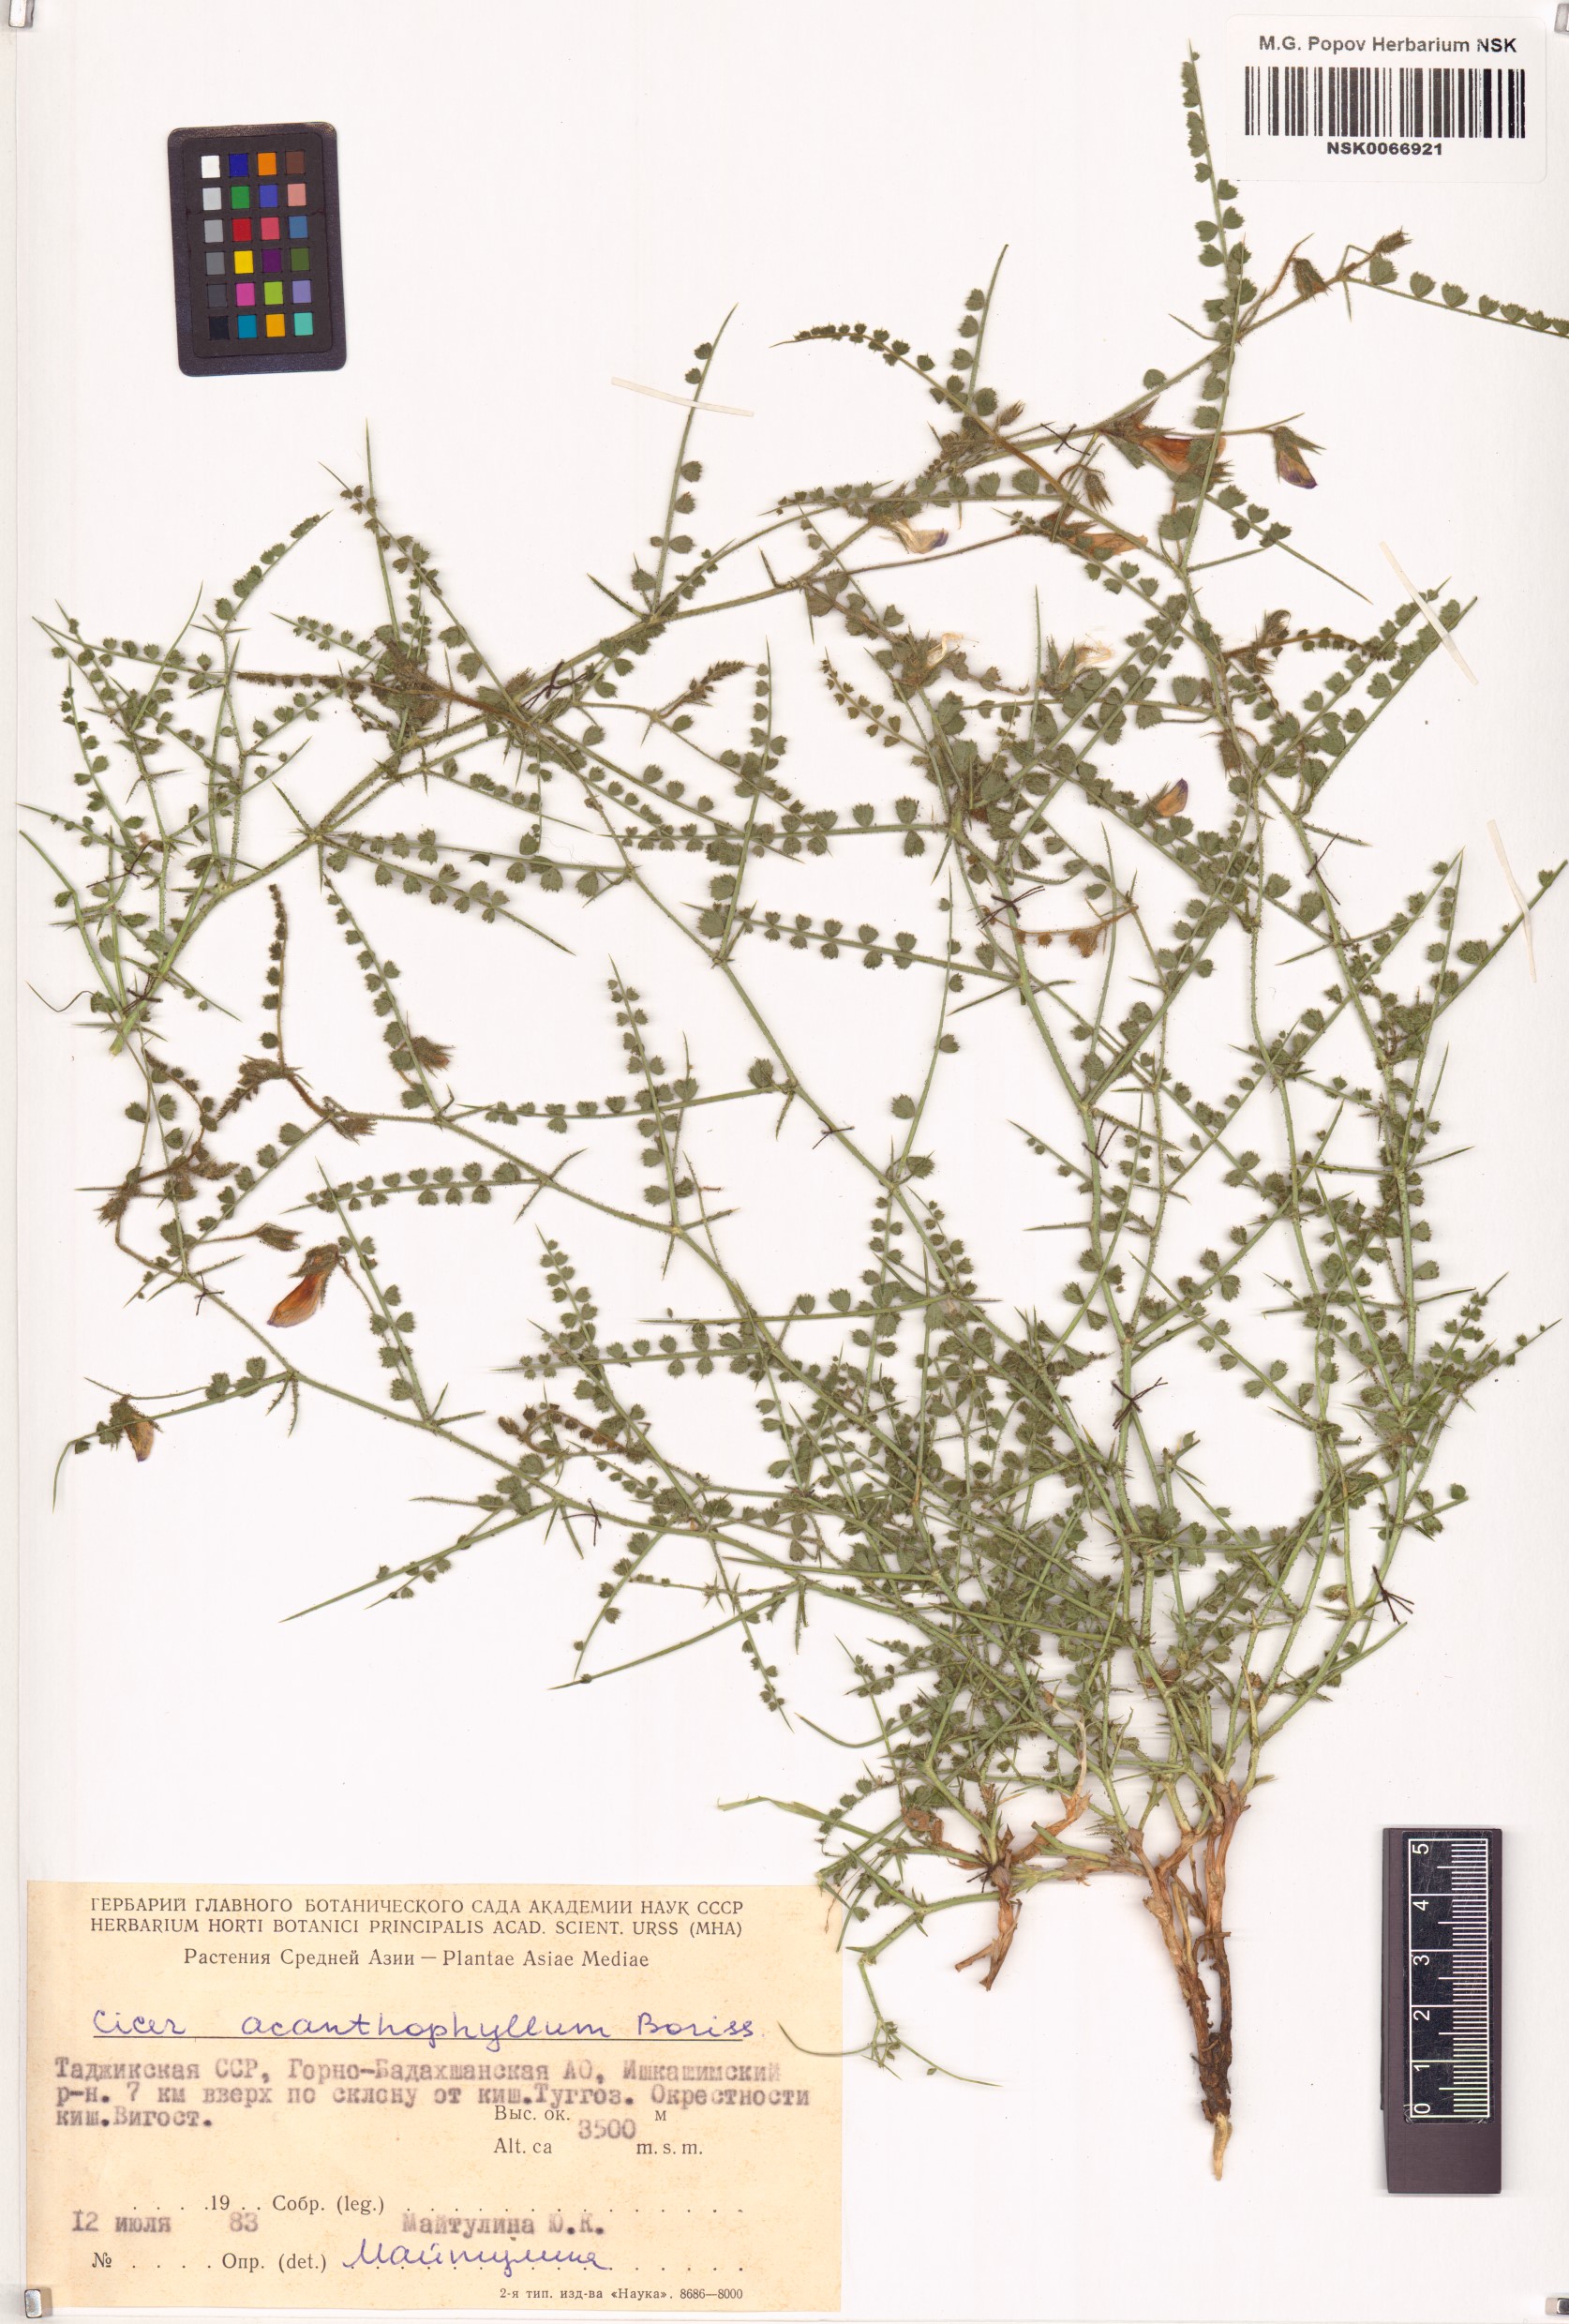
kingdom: Plantae
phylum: Tracheophyta
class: Magnoliopsida
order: Fabales
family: Fabaceae
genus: Cicer
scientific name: Cicer acanthophyllum
